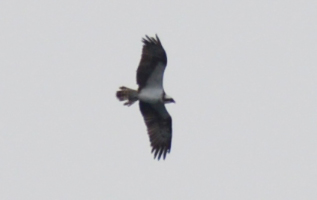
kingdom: Animalia
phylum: Chordata
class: Aves
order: Accipitriformes
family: Pandionidae
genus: Pandion
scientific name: Pandion haliaetus
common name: Osprey
